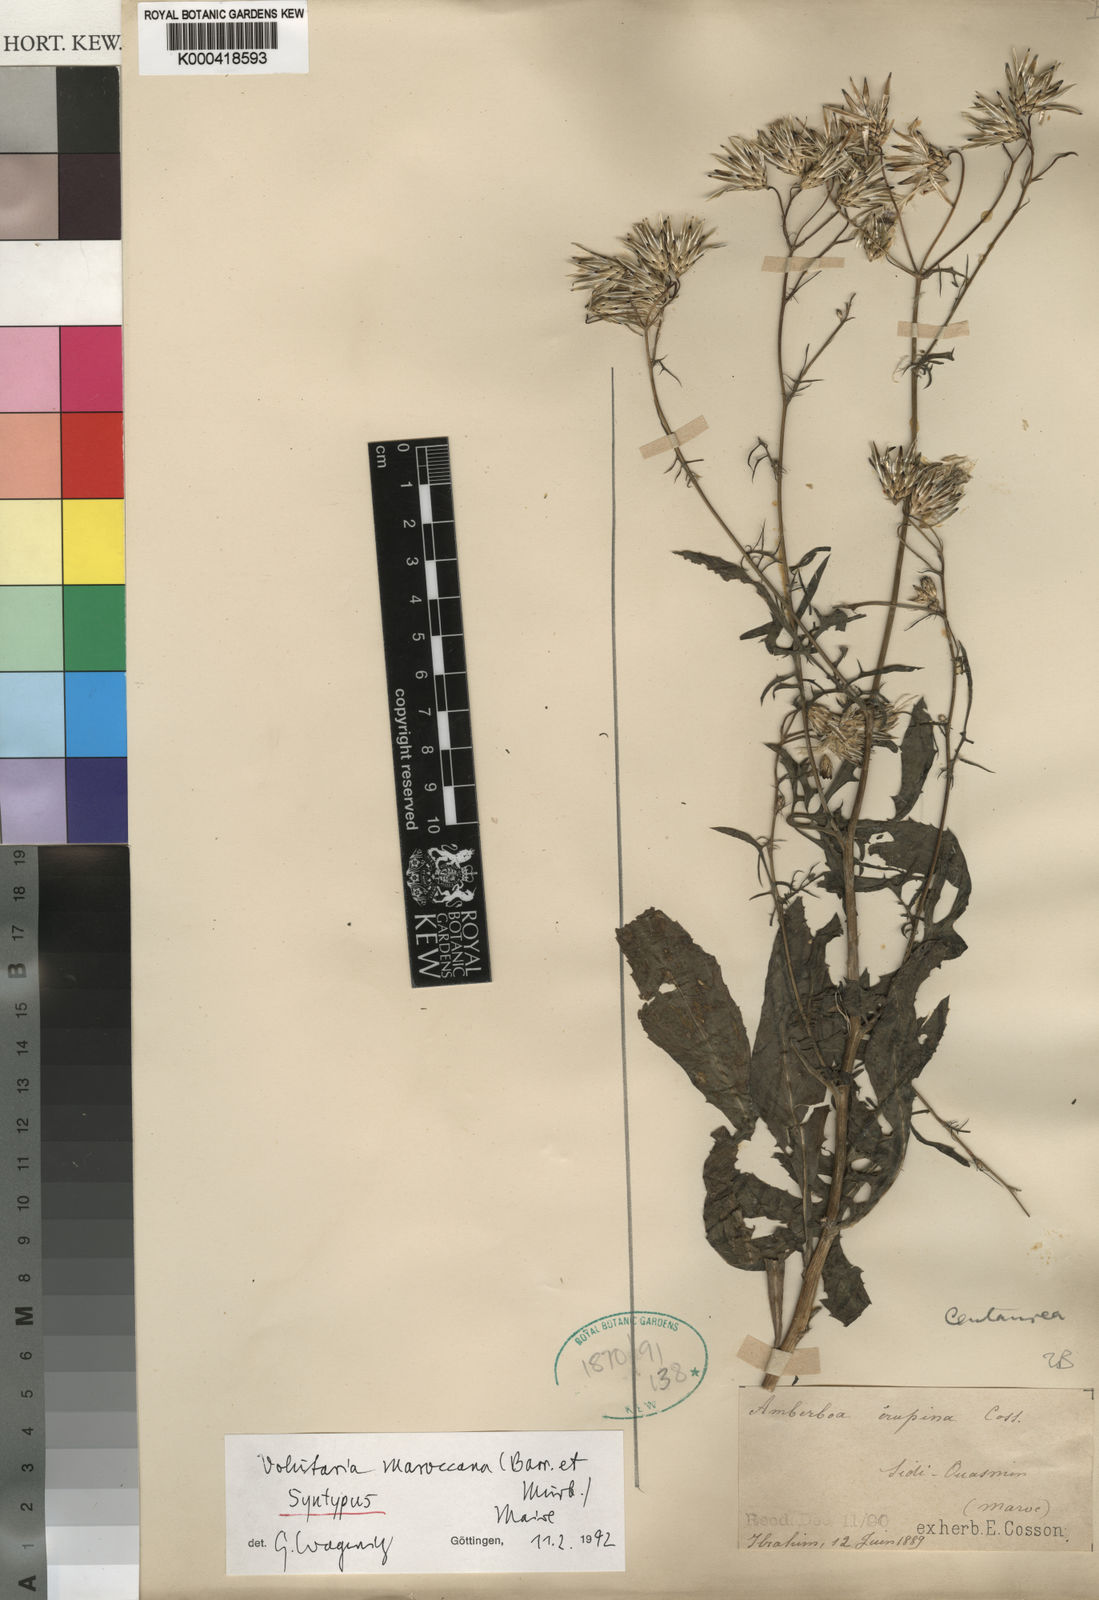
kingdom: Plantae
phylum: Tracheophyta
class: Magnoliopsida
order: Asterales
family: Asteraceae
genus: Volutaria
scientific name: Volutaria maroccana
